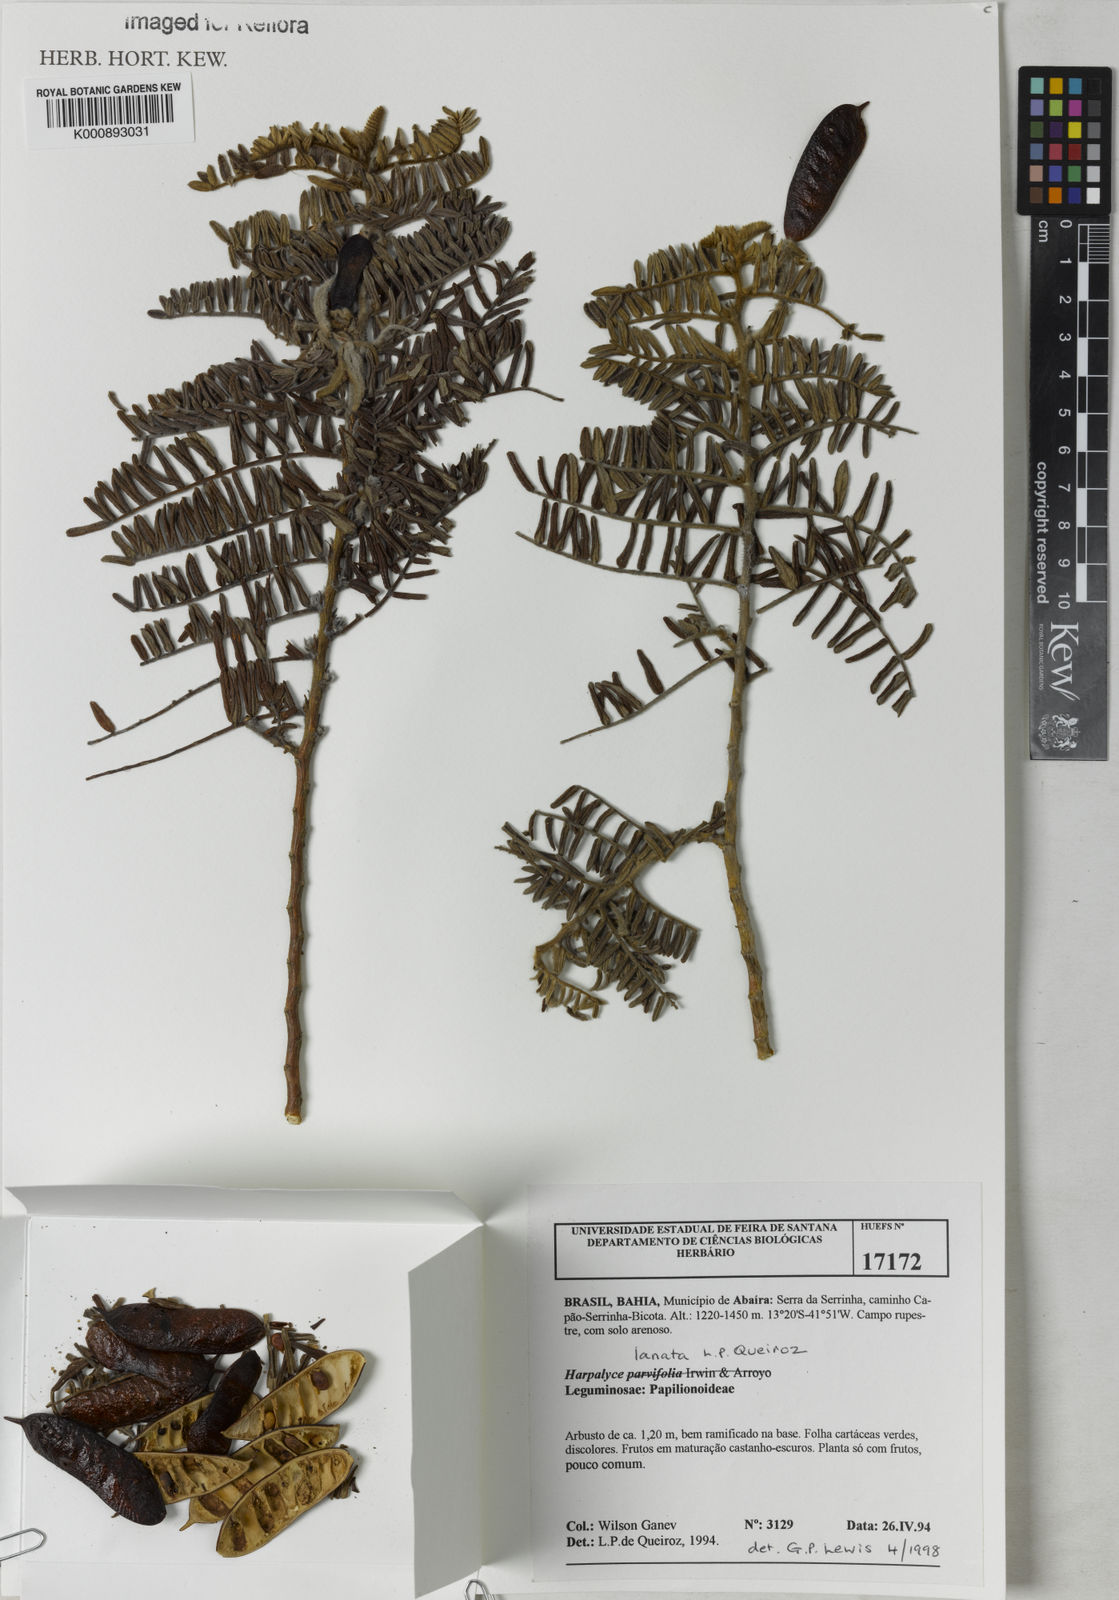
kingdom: Plantae
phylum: Tracheophyta
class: Magnoliopsida
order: Fabales
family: Fabaceae
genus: Harpalyce
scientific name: Harpalyce lanata
